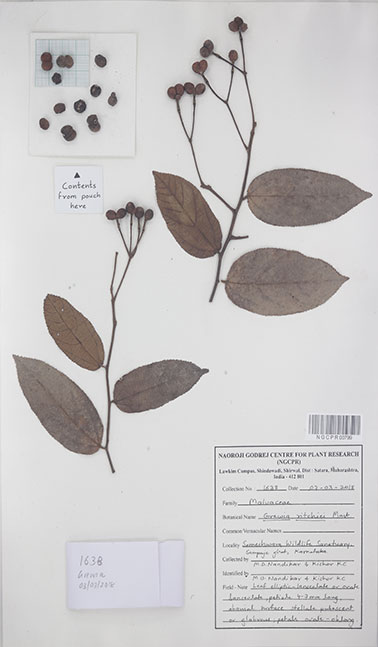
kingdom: Plantae
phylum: Tracheophyta
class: Magnoliopsida
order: Malvales
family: Malvaceae
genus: Grewia
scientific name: Grewia ritchiei
